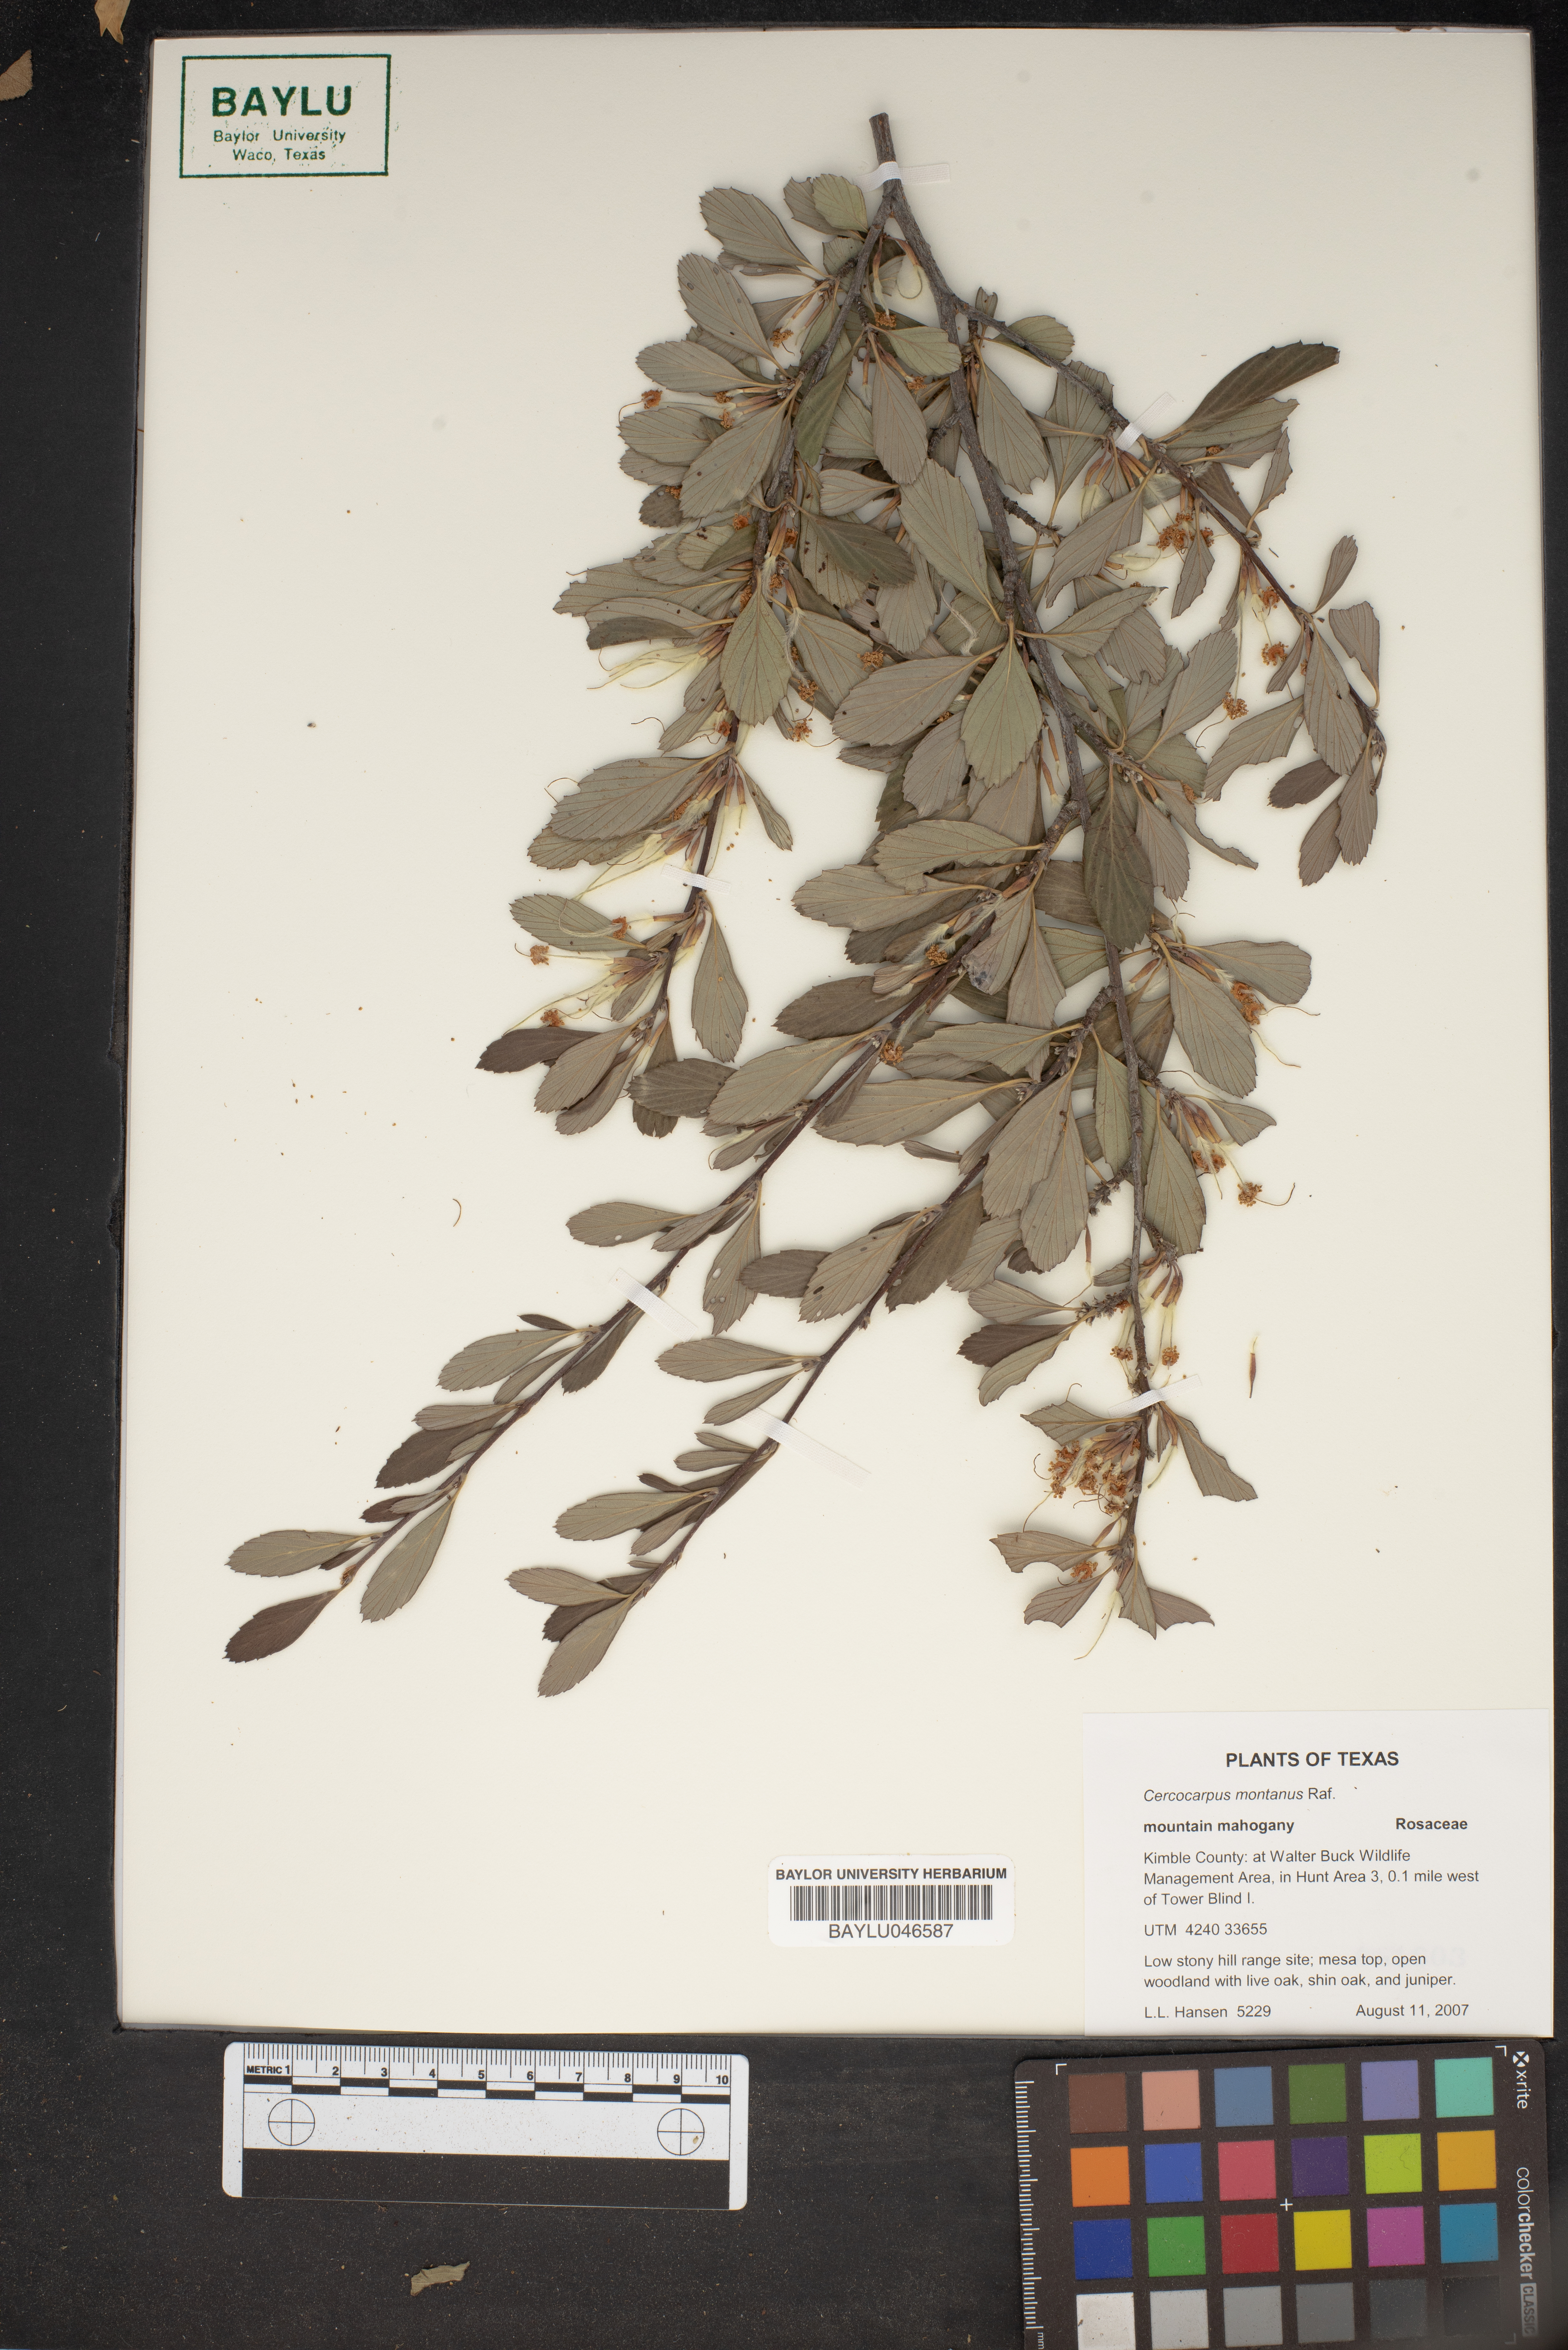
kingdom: Plantae
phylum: Tracheophyta
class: Magnoliopsida
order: Rosales
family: Rosaceae
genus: Cercocarpus
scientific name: Cercocarpus montanus
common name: Alder-leaf cercocarpus
